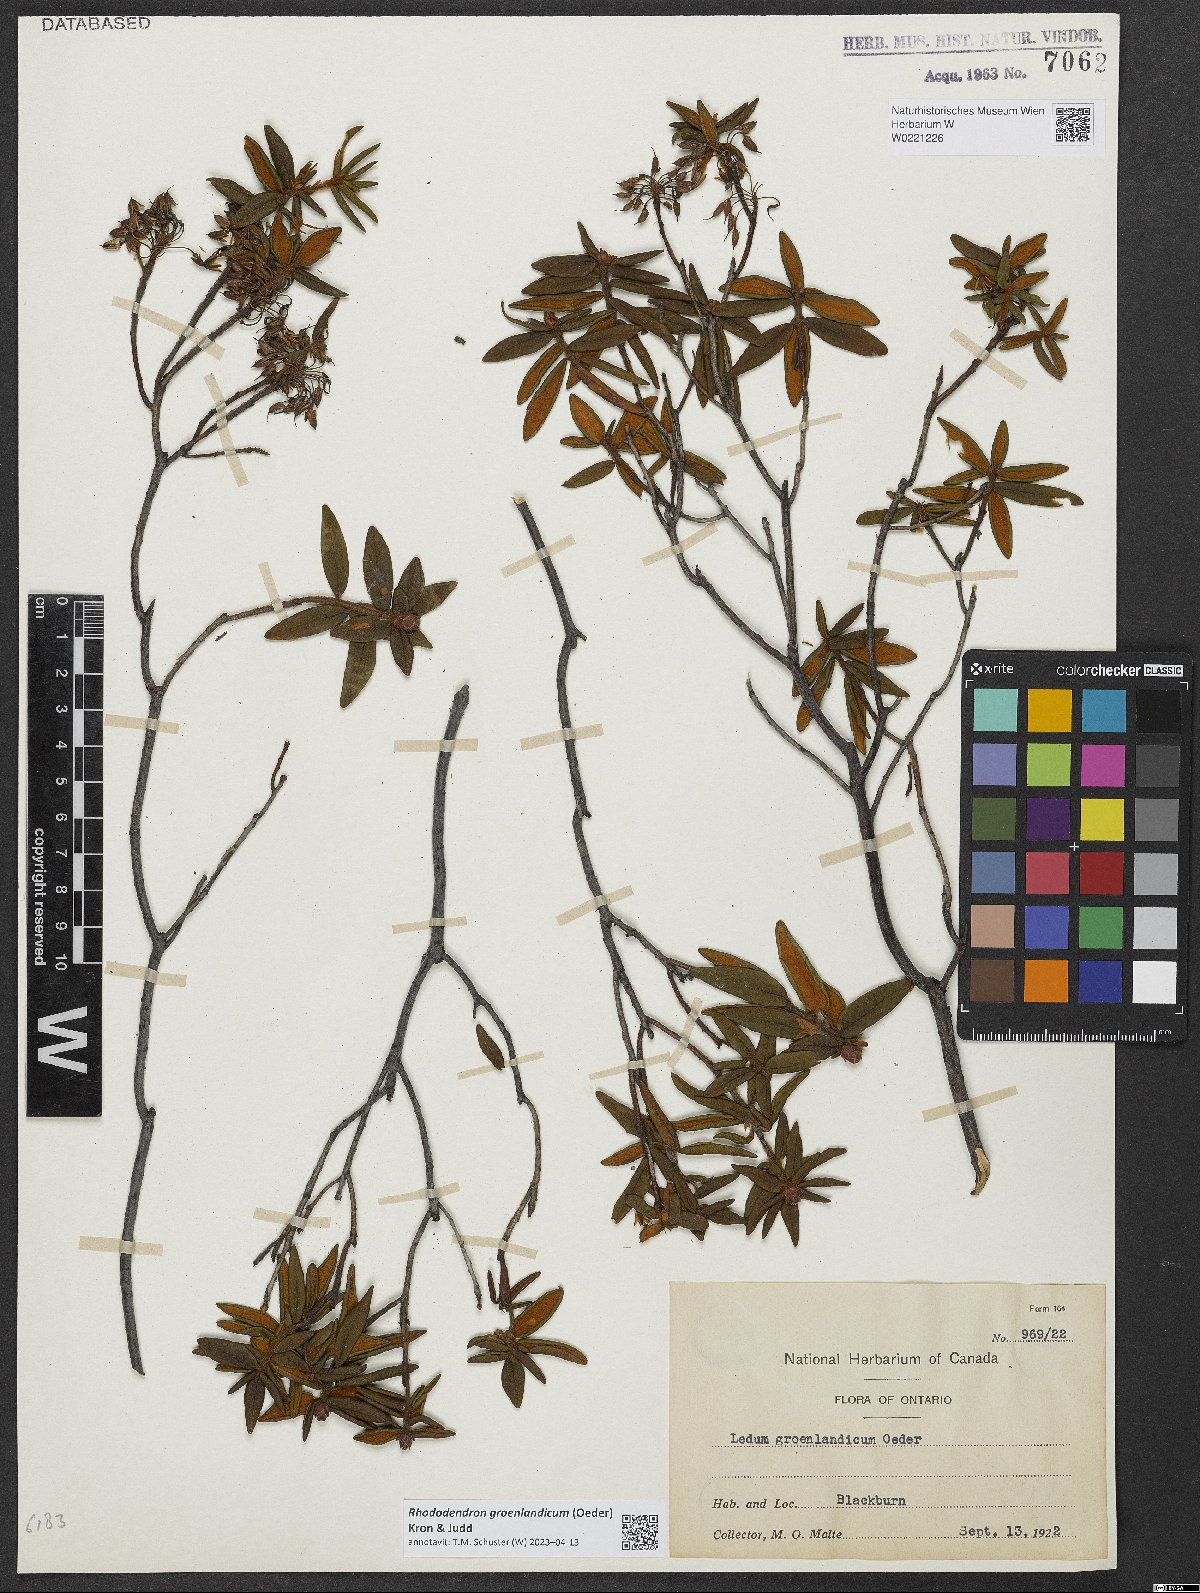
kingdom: Plantae
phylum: Tracheophyta
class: Magnoliopsida
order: Ericales
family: Ericaceae
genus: Rhododendron
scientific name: Rhododendron groenlandicum
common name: Bog labrador tea
